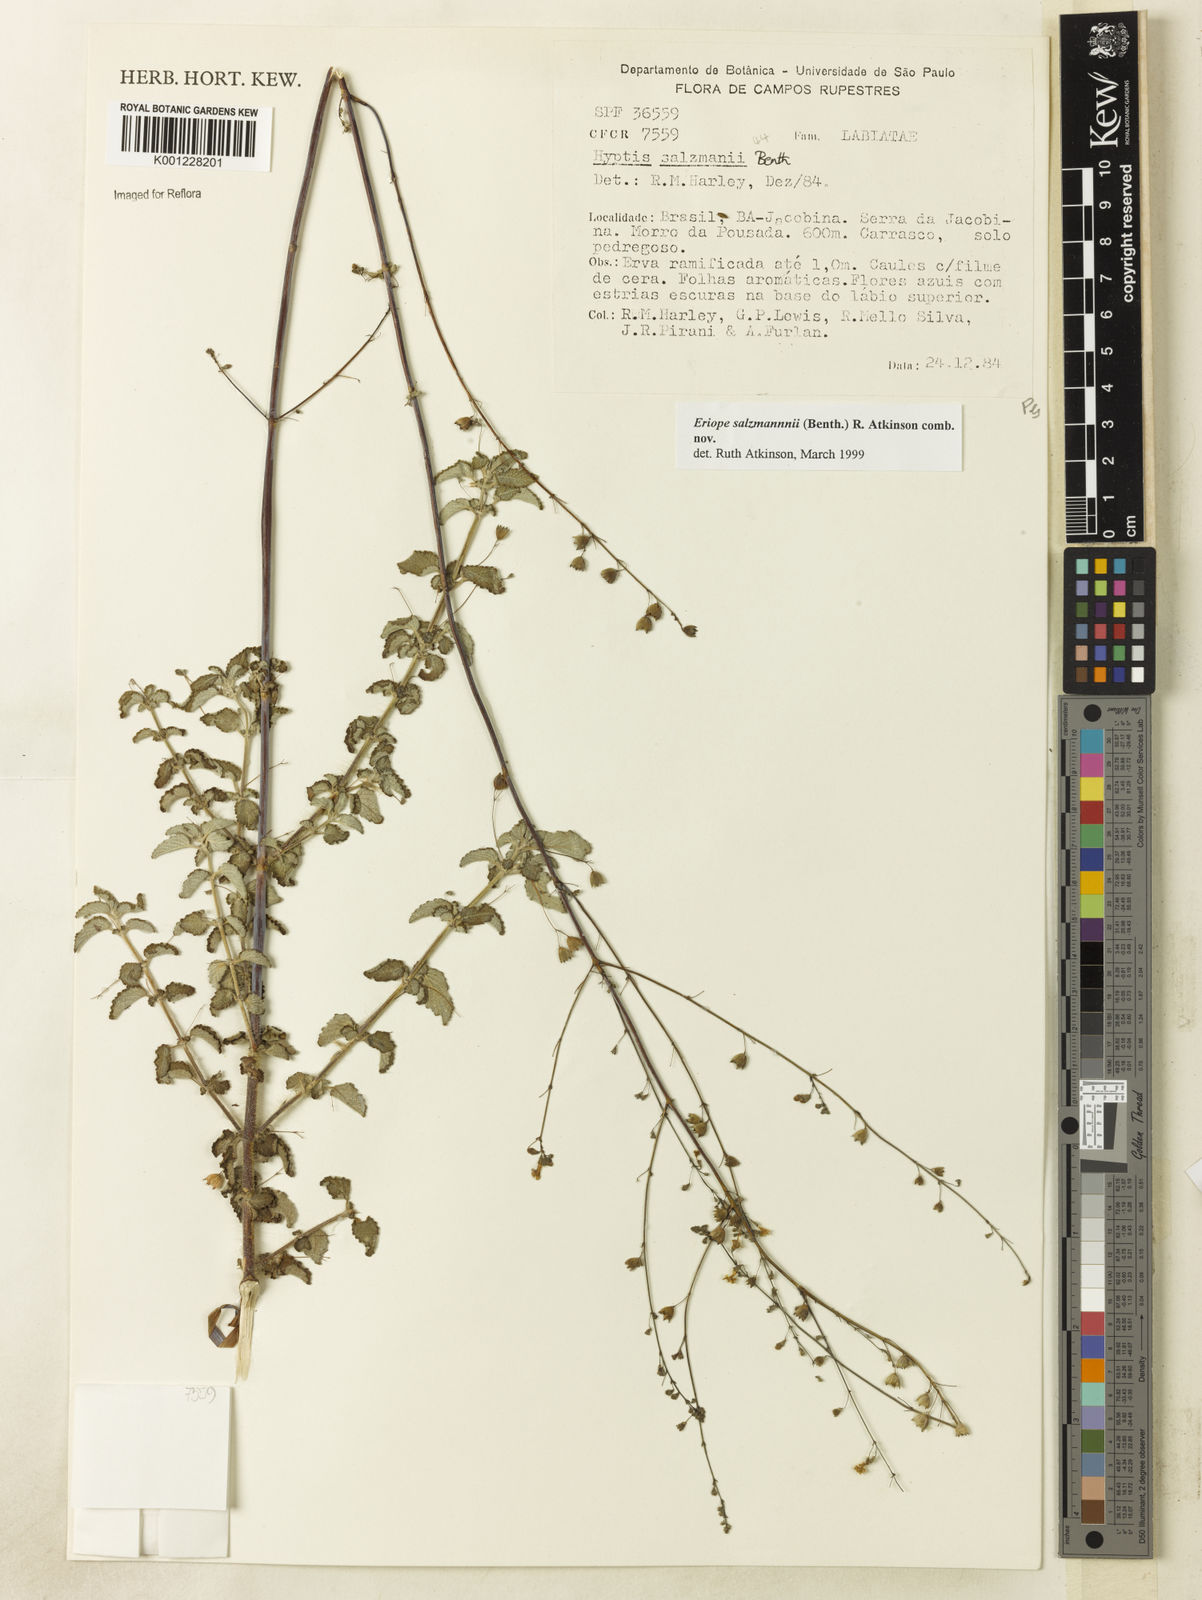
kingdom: Plantae
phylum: Tracheophyta
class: Magnoliopsida
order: Lamiales
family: Lamiaceae
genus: Hypenia
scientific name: Hypenia salzmannii
